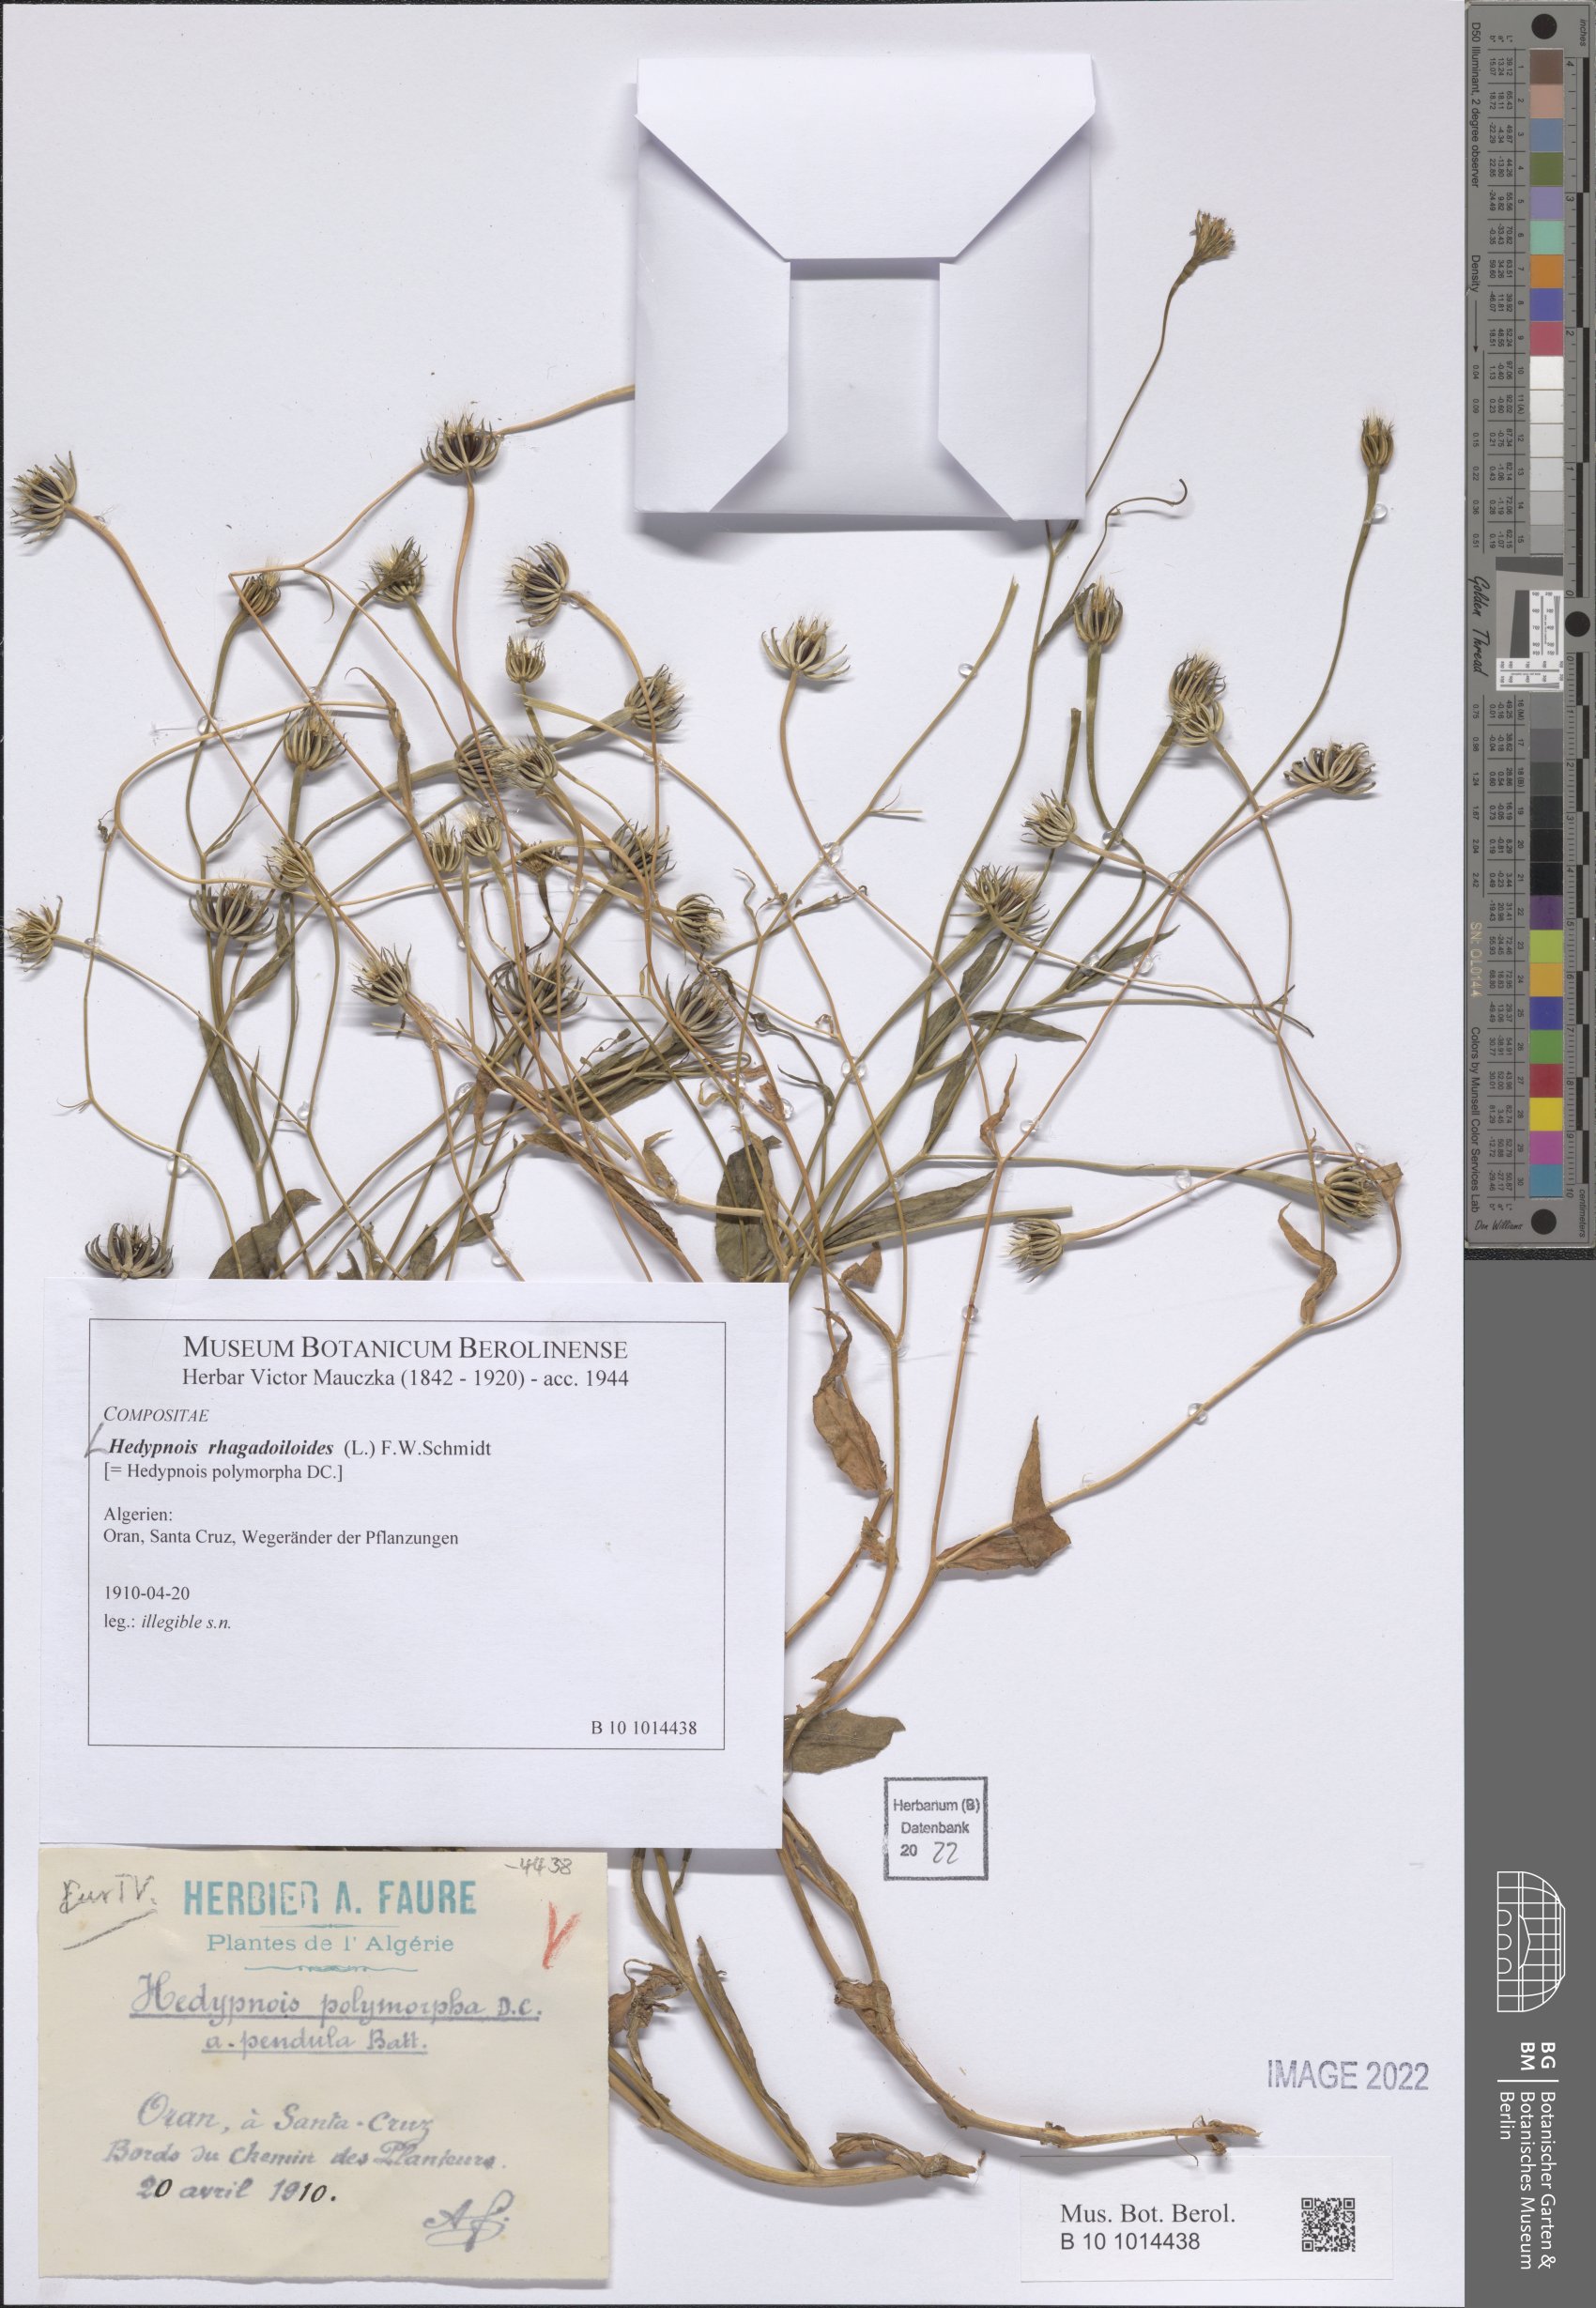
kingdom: Plantae
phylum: Tracheophyta
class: Magnoliopsida
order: Asterales
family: Asteraceae
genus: Hedypnois
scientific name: Hedypnois rhagadioloides
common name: Cretan weed
